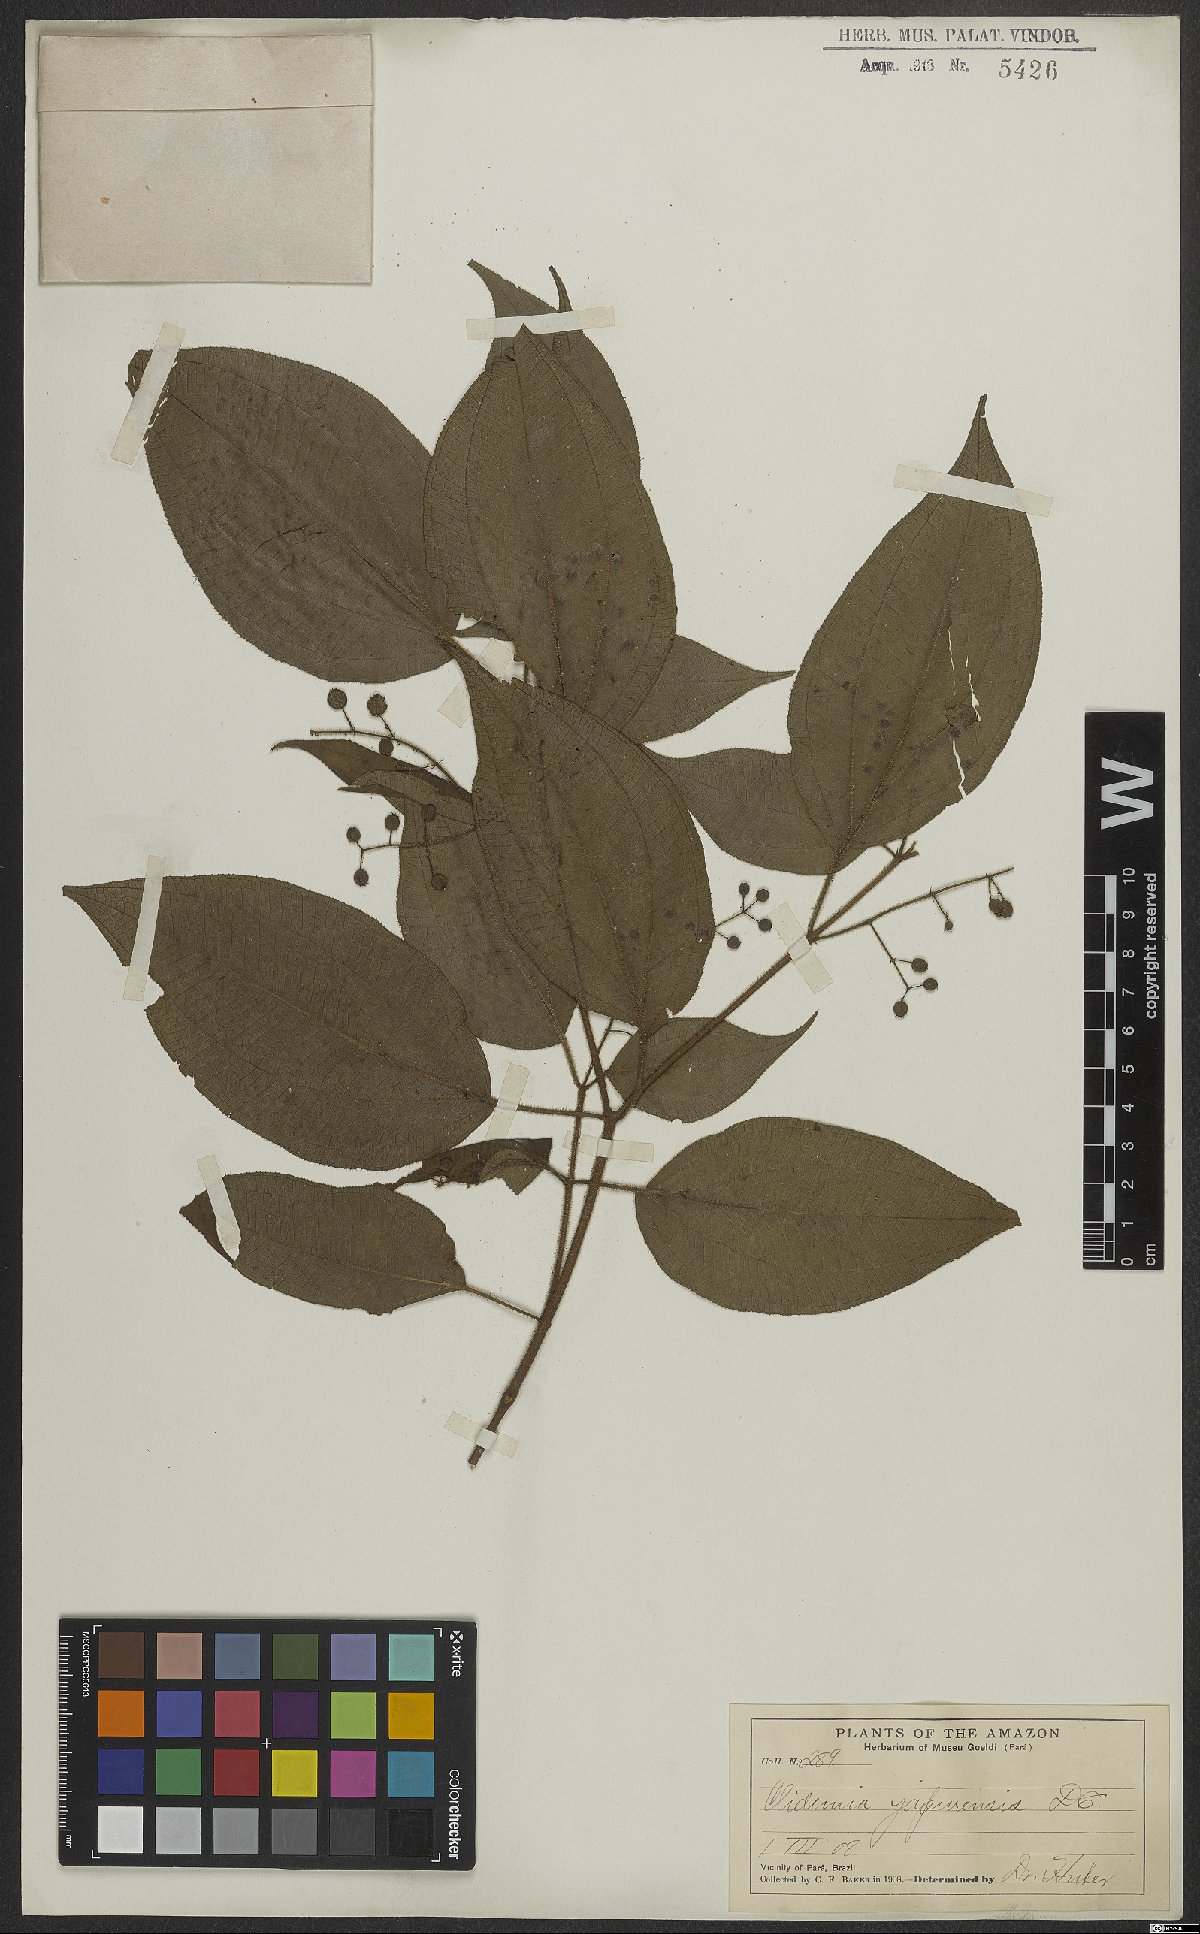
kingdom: Plantae
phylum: Tracheophyta
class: Magnoliopsida
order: Myrtales
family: Melastomataceae
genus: Miconia
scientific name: Miconia heteroclita
